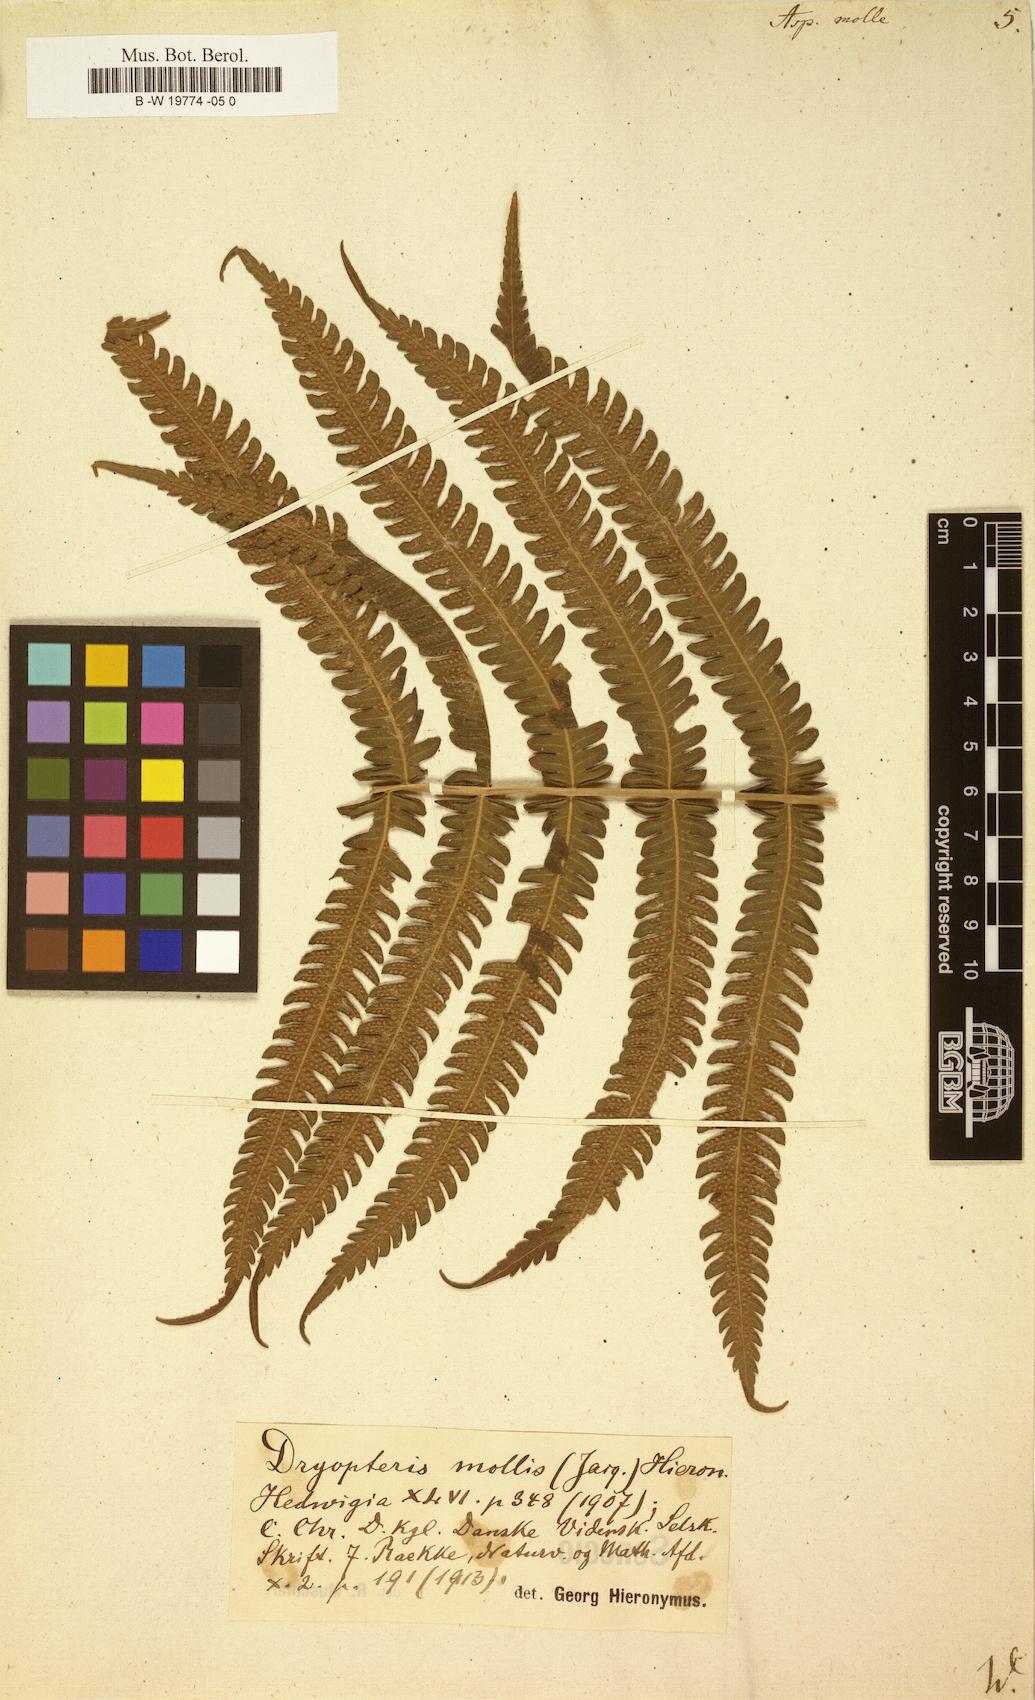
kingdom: Plantae
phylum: Tracheophyta
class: Polypodiopsida
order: Polypodiales
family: Thelypteridaceae
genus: Christella
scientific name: Christella dentata
